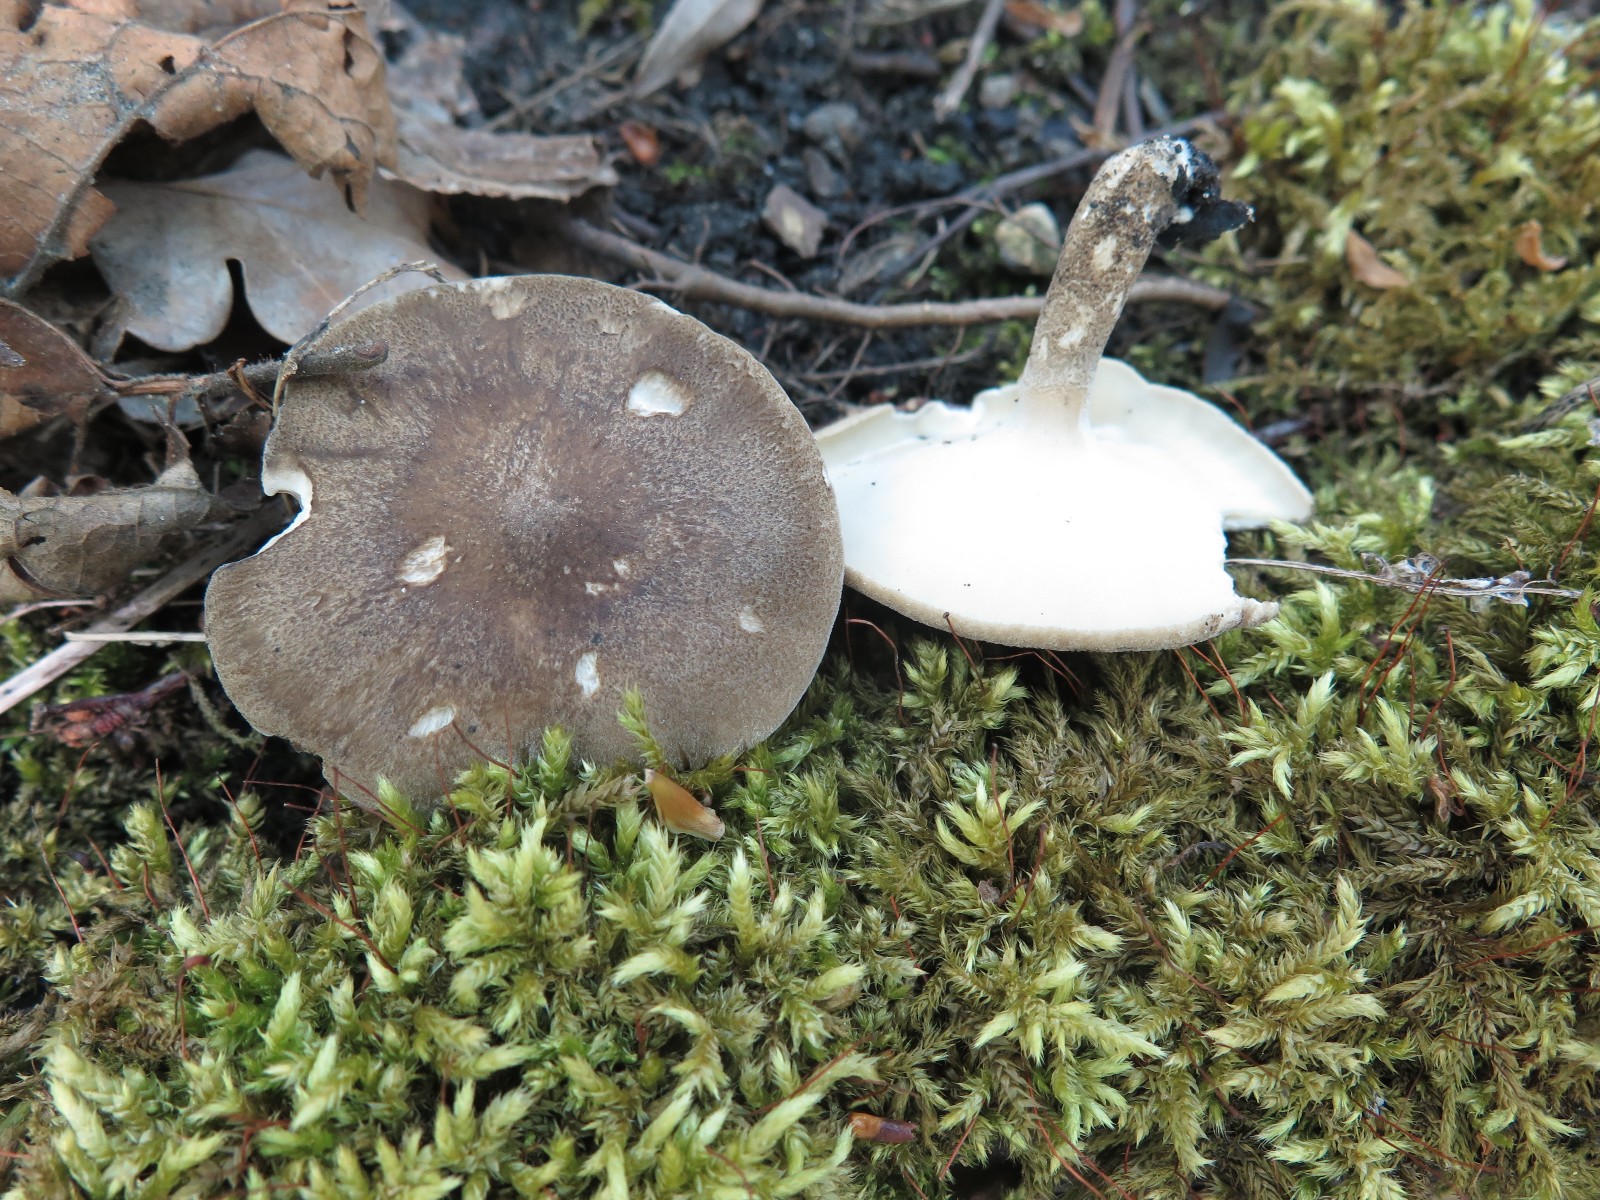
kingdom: Fungi
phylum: Basidiomycota
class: Agaricomycetes
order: Polyporales
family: Polyporaceae
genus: Lentinus
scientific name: Lentinus substrictus
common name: forårs-stilkporesvamp
